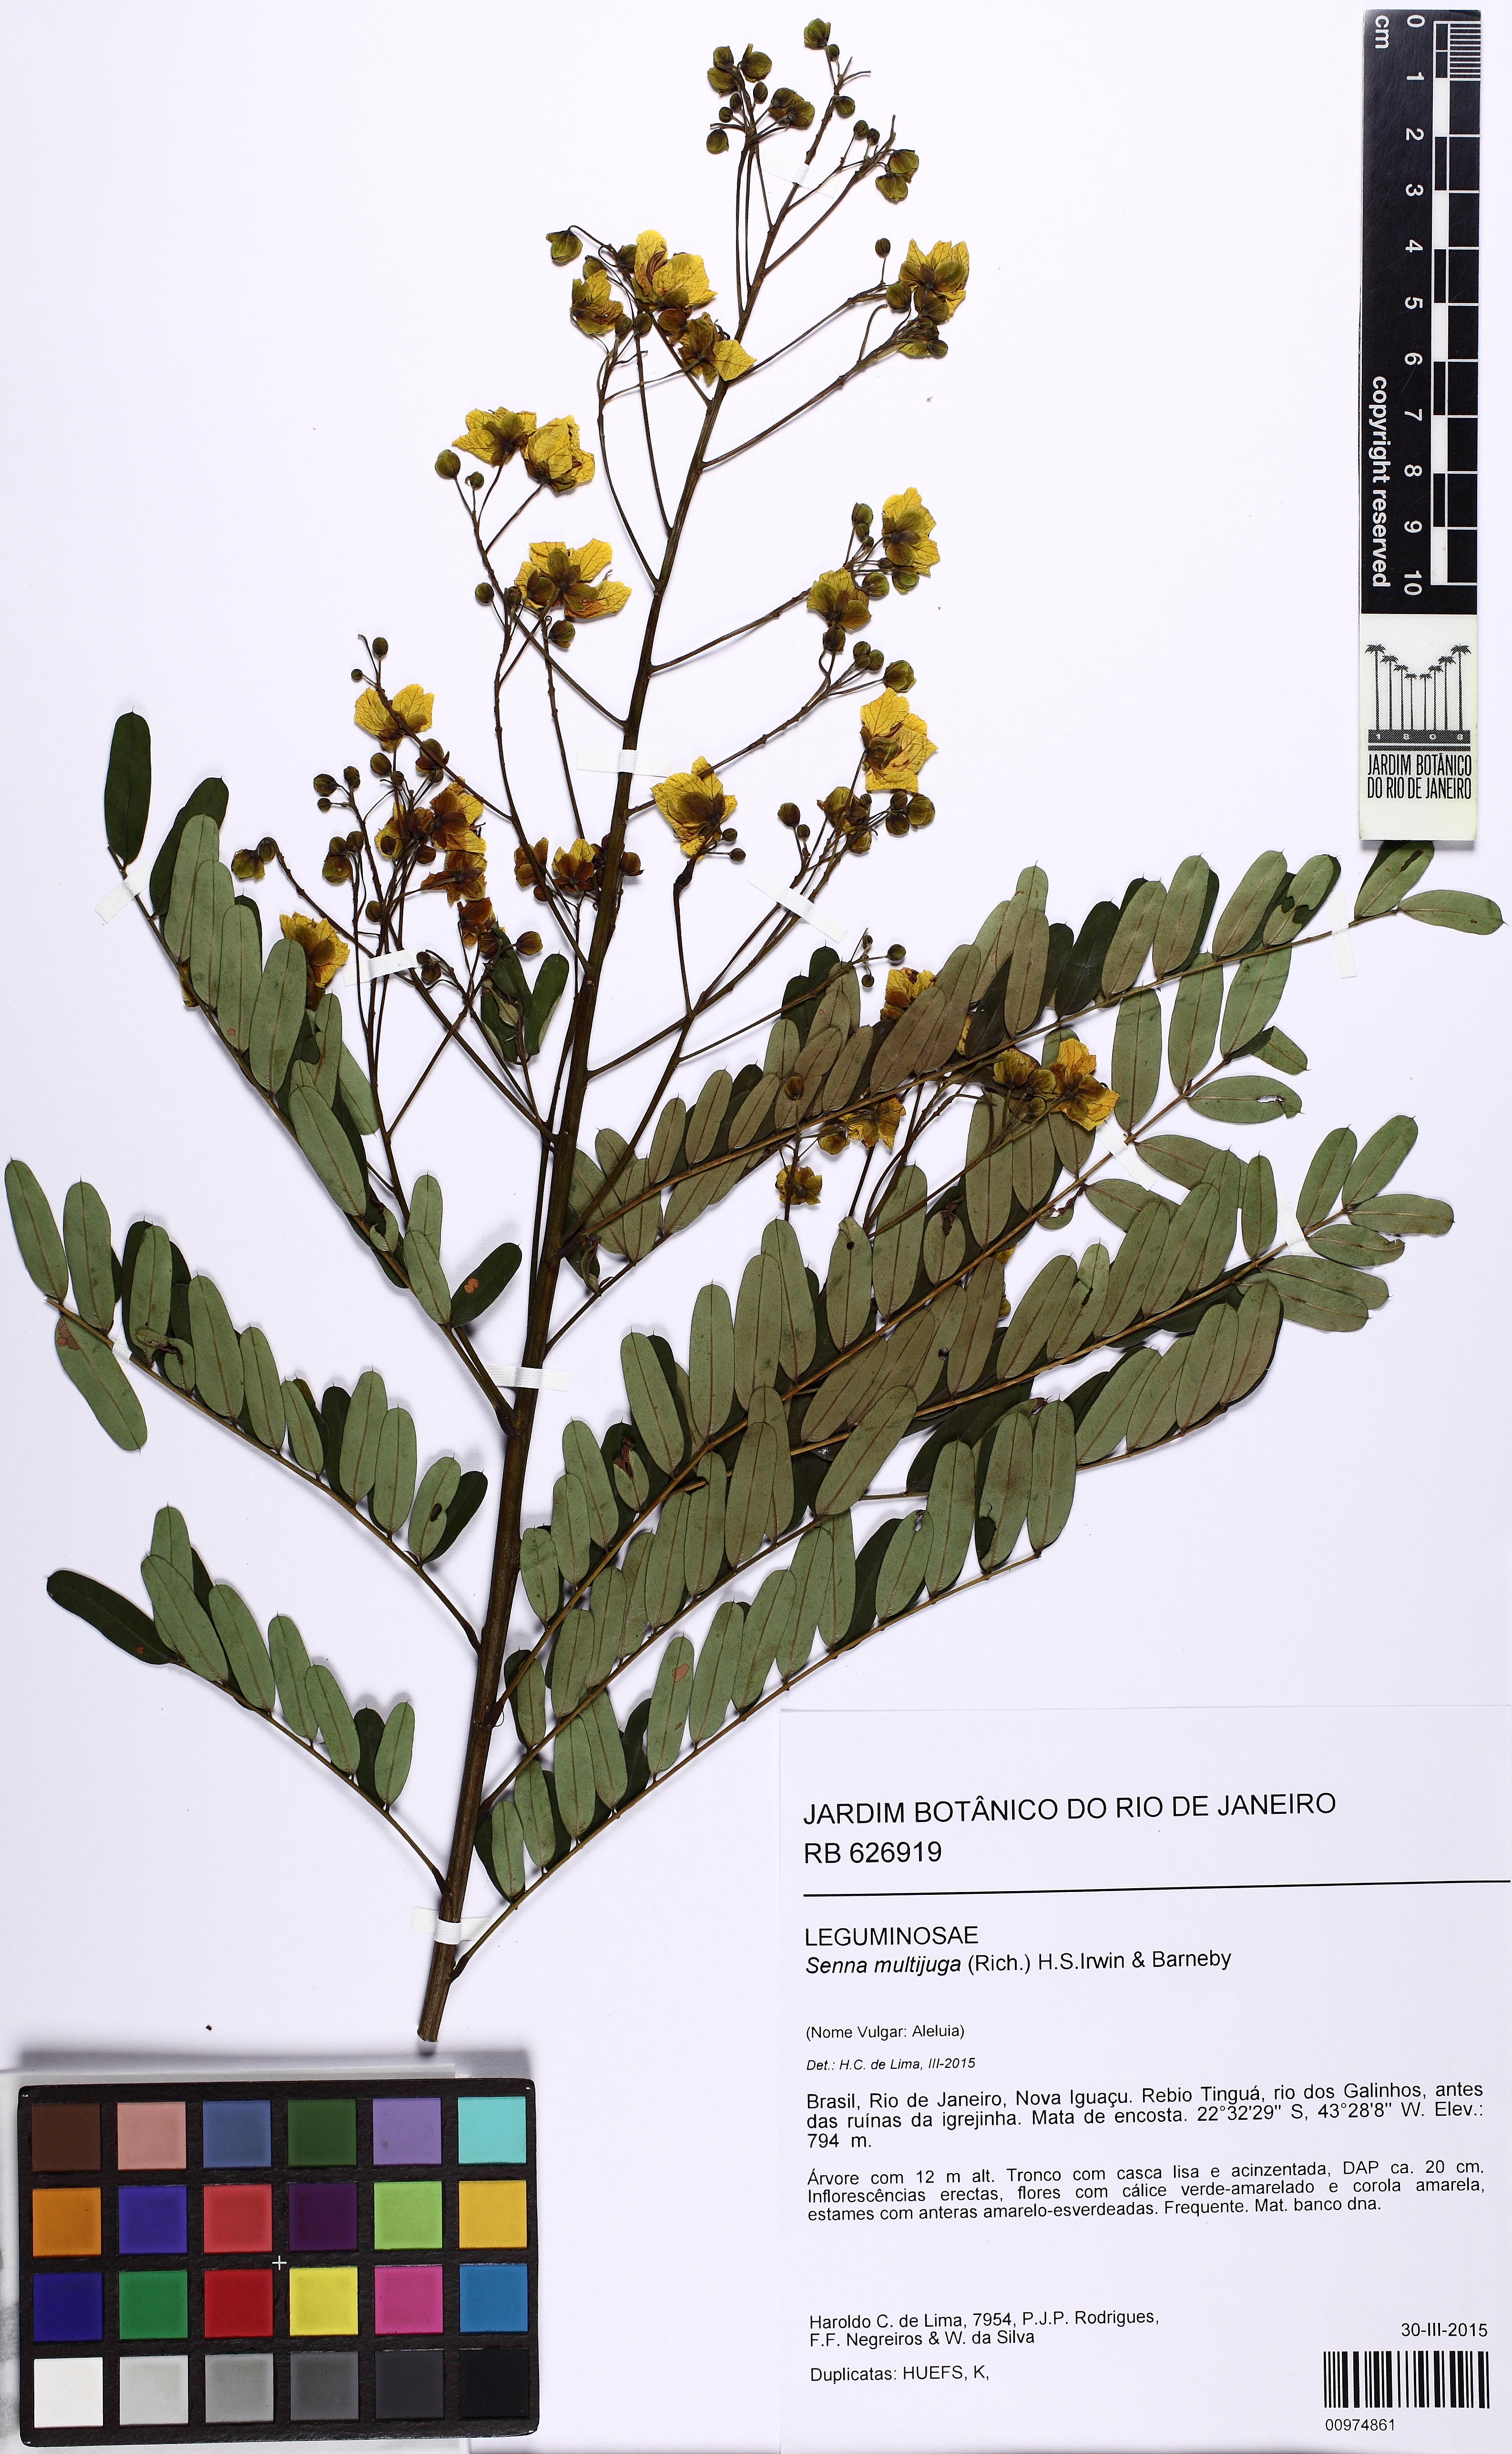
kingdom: Plantae
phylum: Tracheophyta
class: Magnoliopsida
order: Fabales
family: Fabaceae
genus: Senna
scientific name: Senna multijuga
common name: False sicklepod
